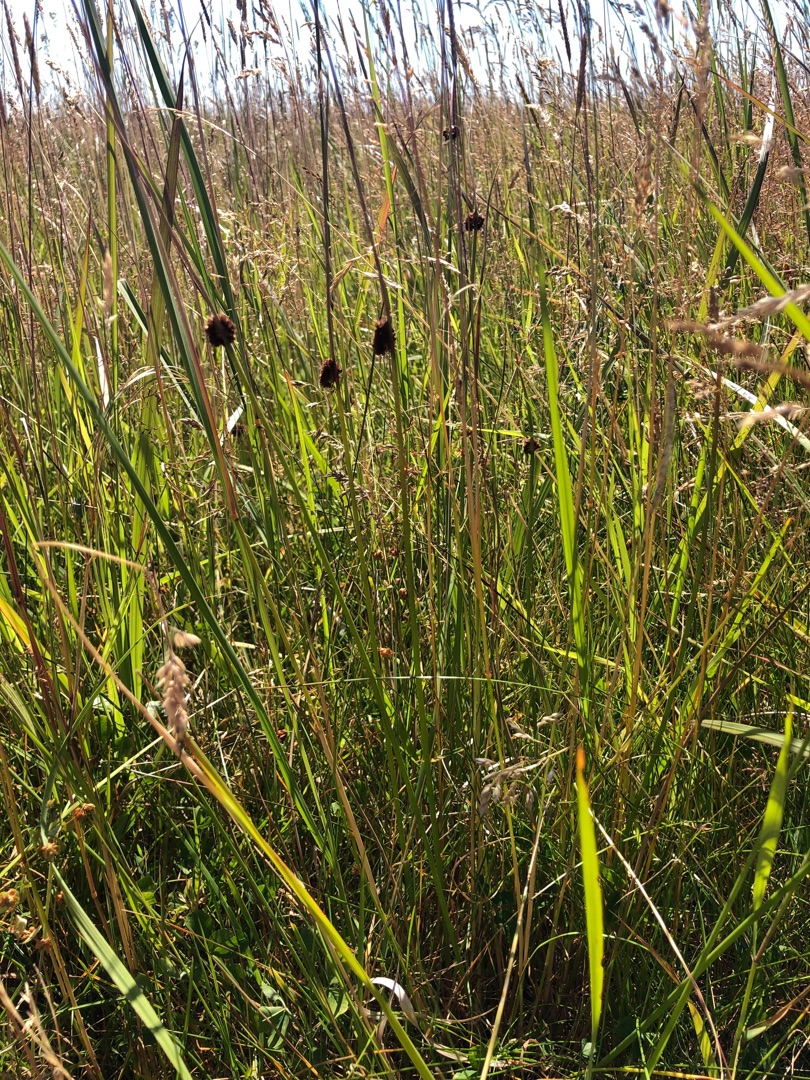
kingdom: Plantae
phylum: Tracheophyta
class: Liliopsida
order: Poales
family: Juncaceae
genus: Juncus
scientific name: Juncus conglomeratus
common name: Knop-siv
